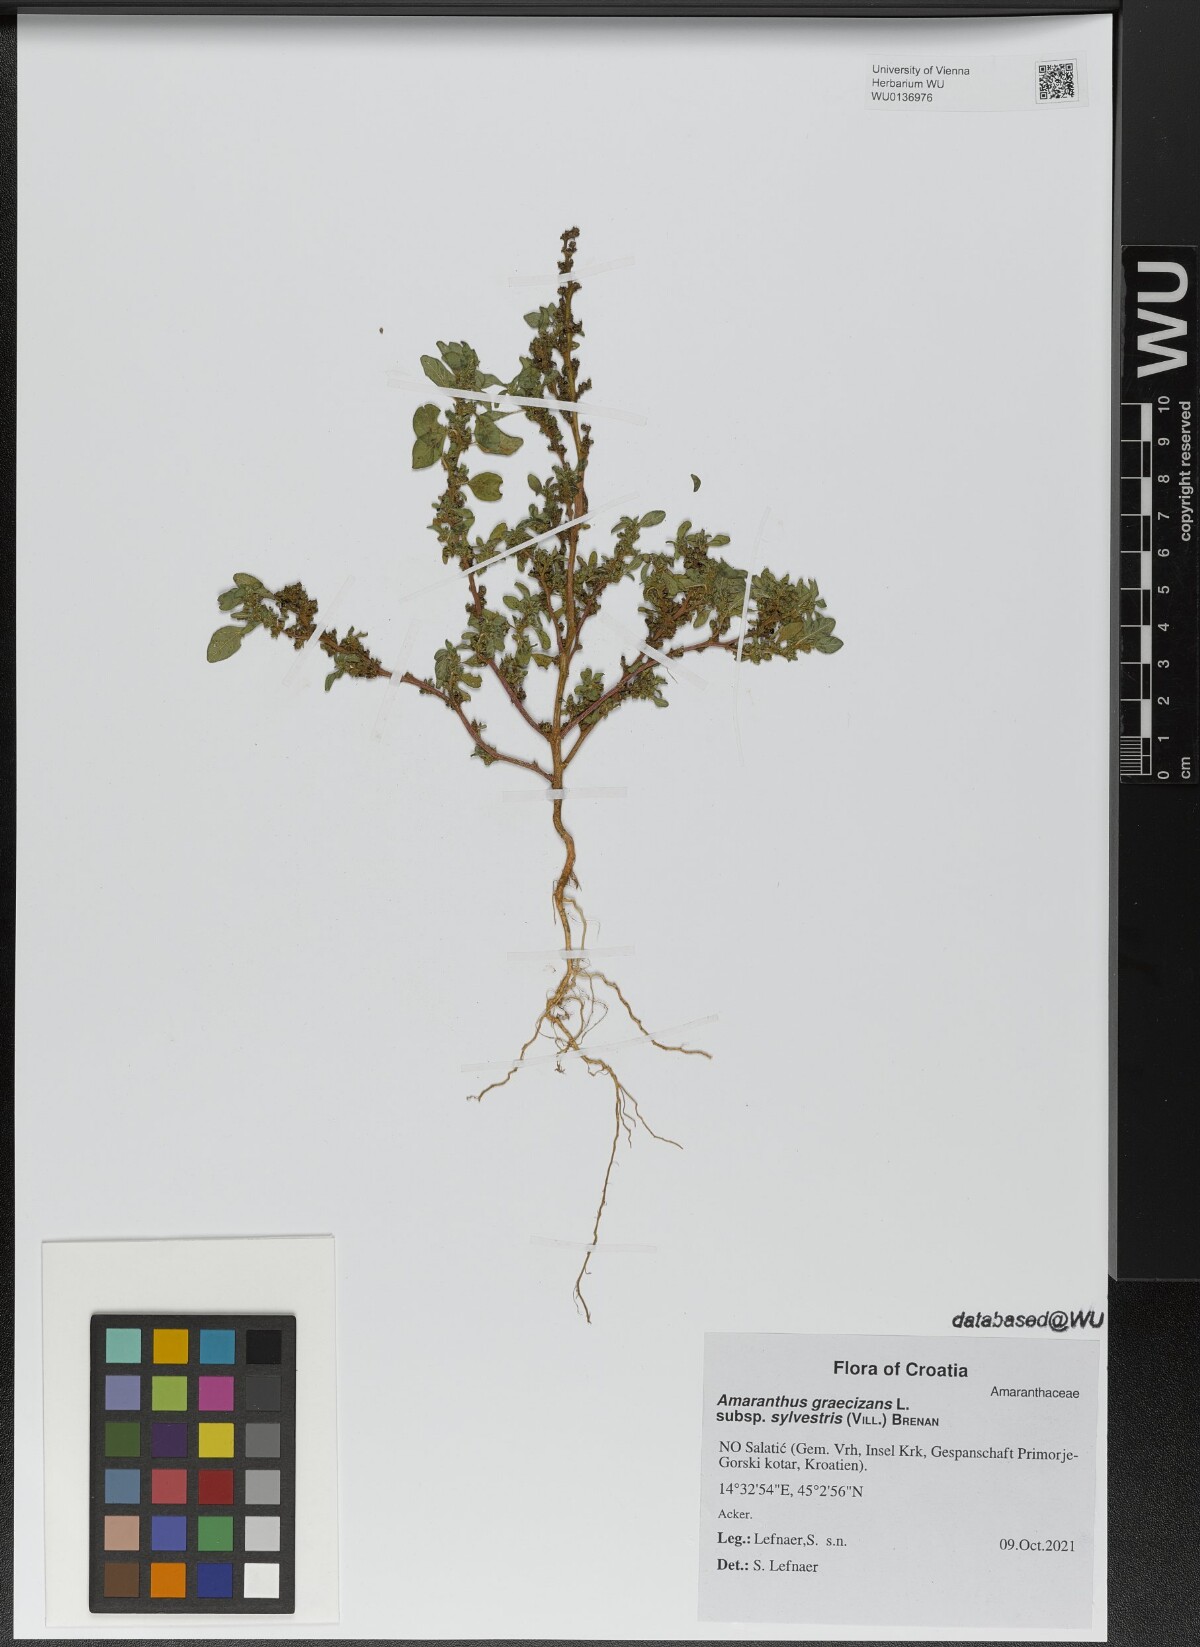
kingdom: Plantae
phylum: Tracheophyta
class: Magnoliopsida
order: Caryophyllales
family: Amaranthaceae
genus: Amaranthus
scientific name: Amaranthus graecizans
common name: Mediterranean amaranth
